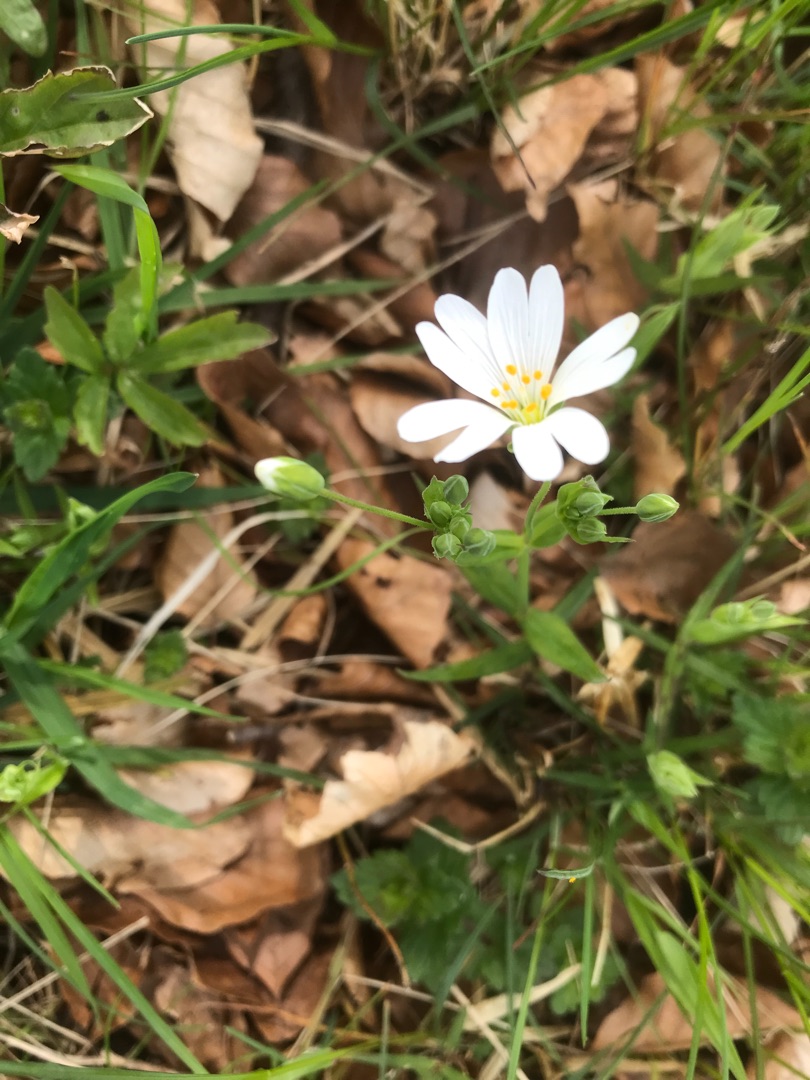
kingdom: Plantae
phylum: Tracheophyta
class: Magnoliopsida
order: Caryophyllales
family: Caryophyllaceae
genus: Rabelera
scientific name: Rabelera holostea
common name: Stor fladstjerne
